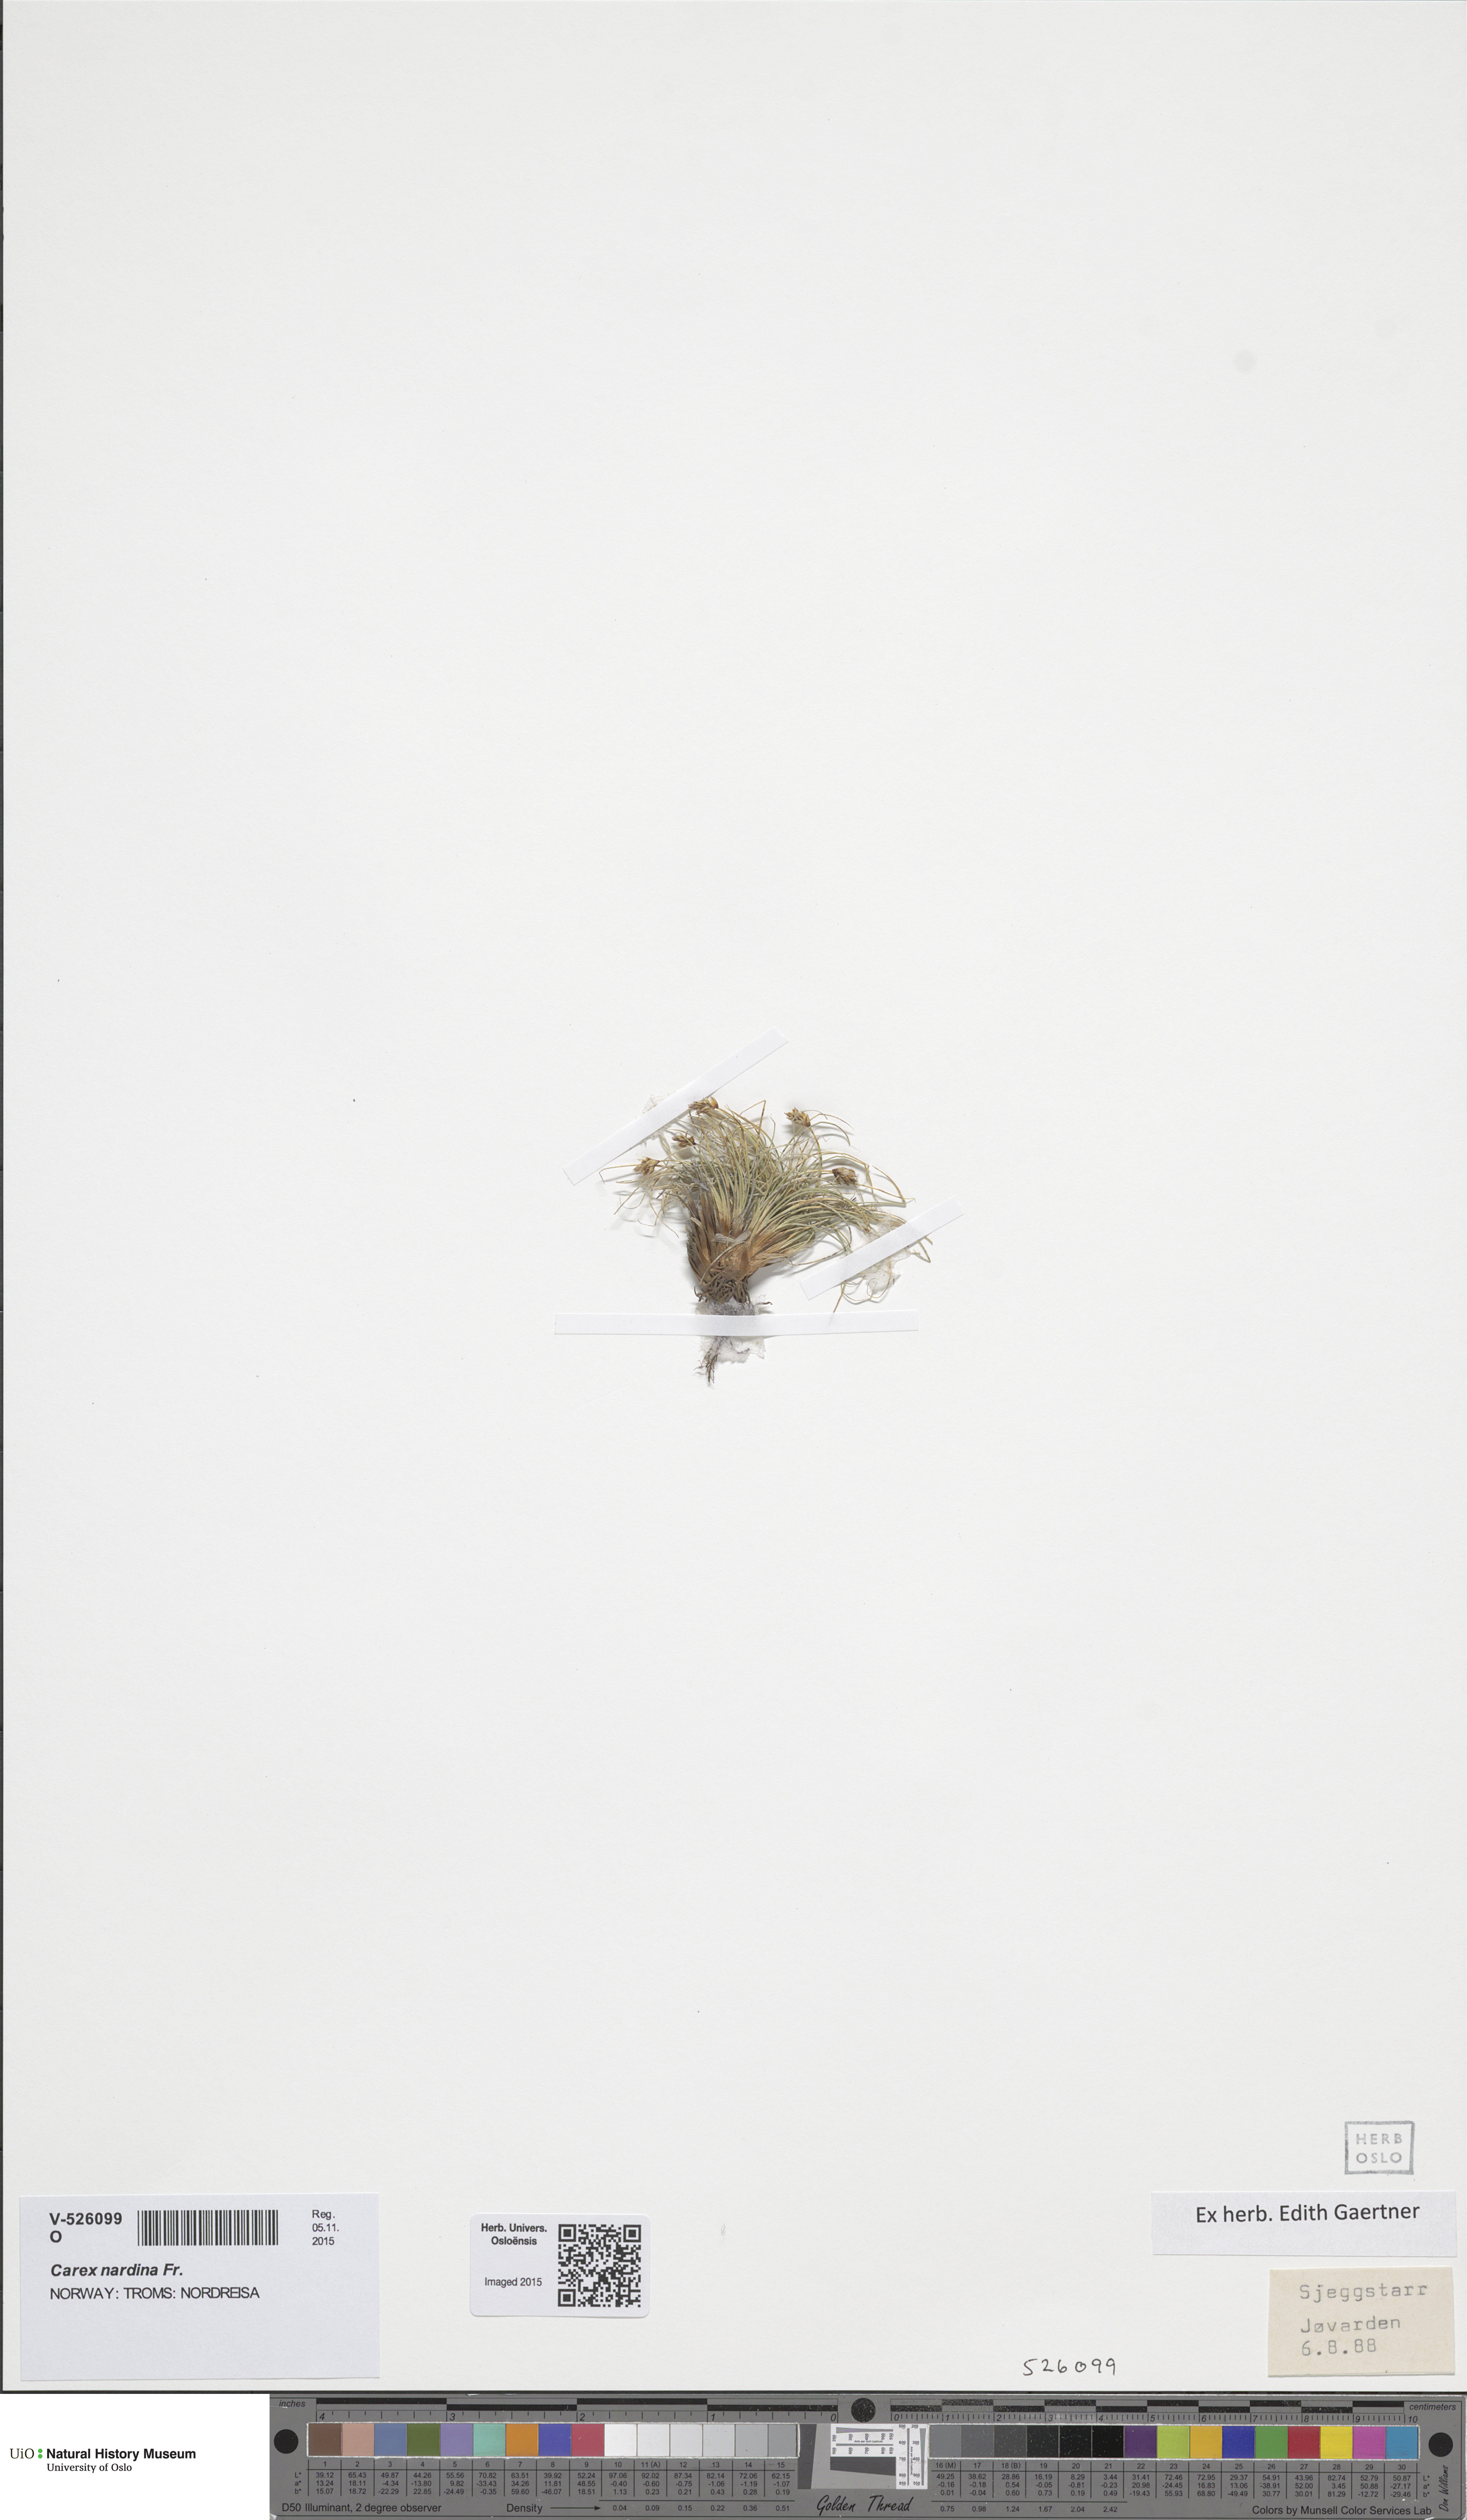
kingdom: Plantae
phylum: Tracheophyta
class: Liliopsida
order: Poales
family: Cyperaceae
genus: Carex
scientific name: Carex nardina
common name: Nard sedge
